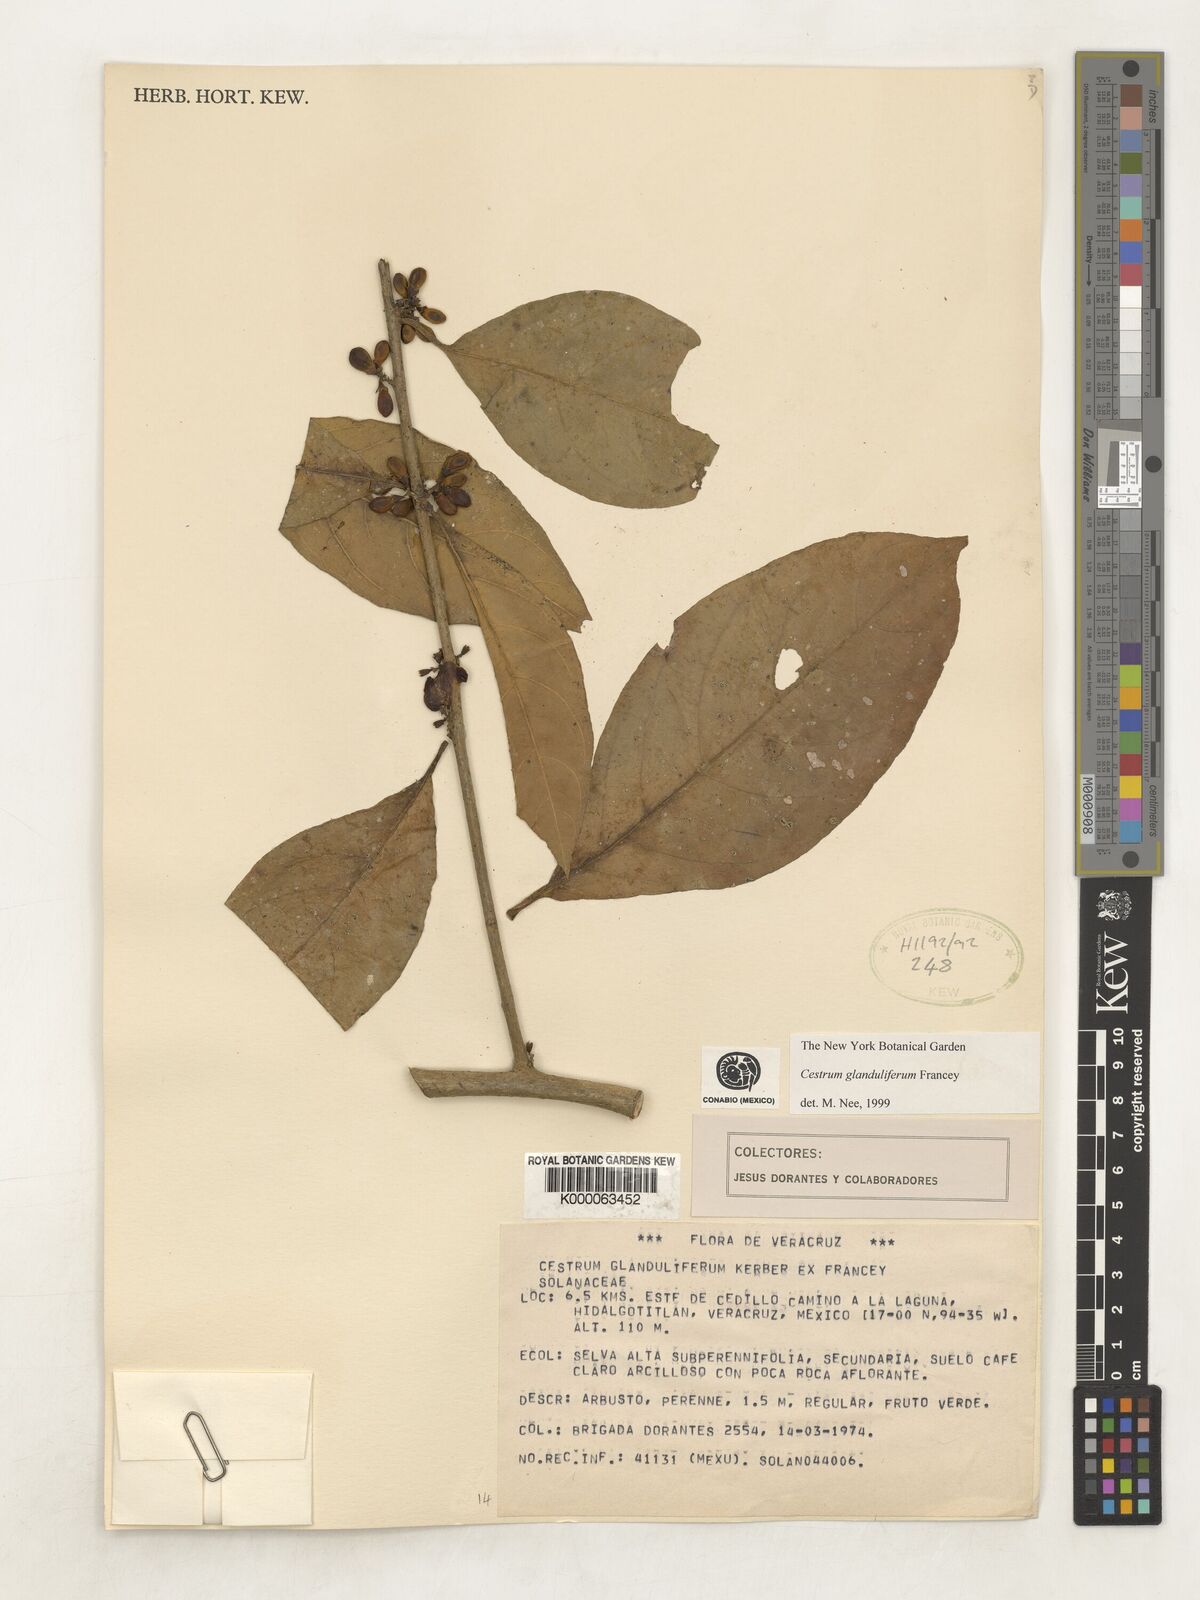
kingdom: Plantae
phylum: Tracheophyta
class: Magnoliopsida
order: Solanales
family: Solanaceae
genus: Cestrum
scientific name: Cestrum glanduliferum
